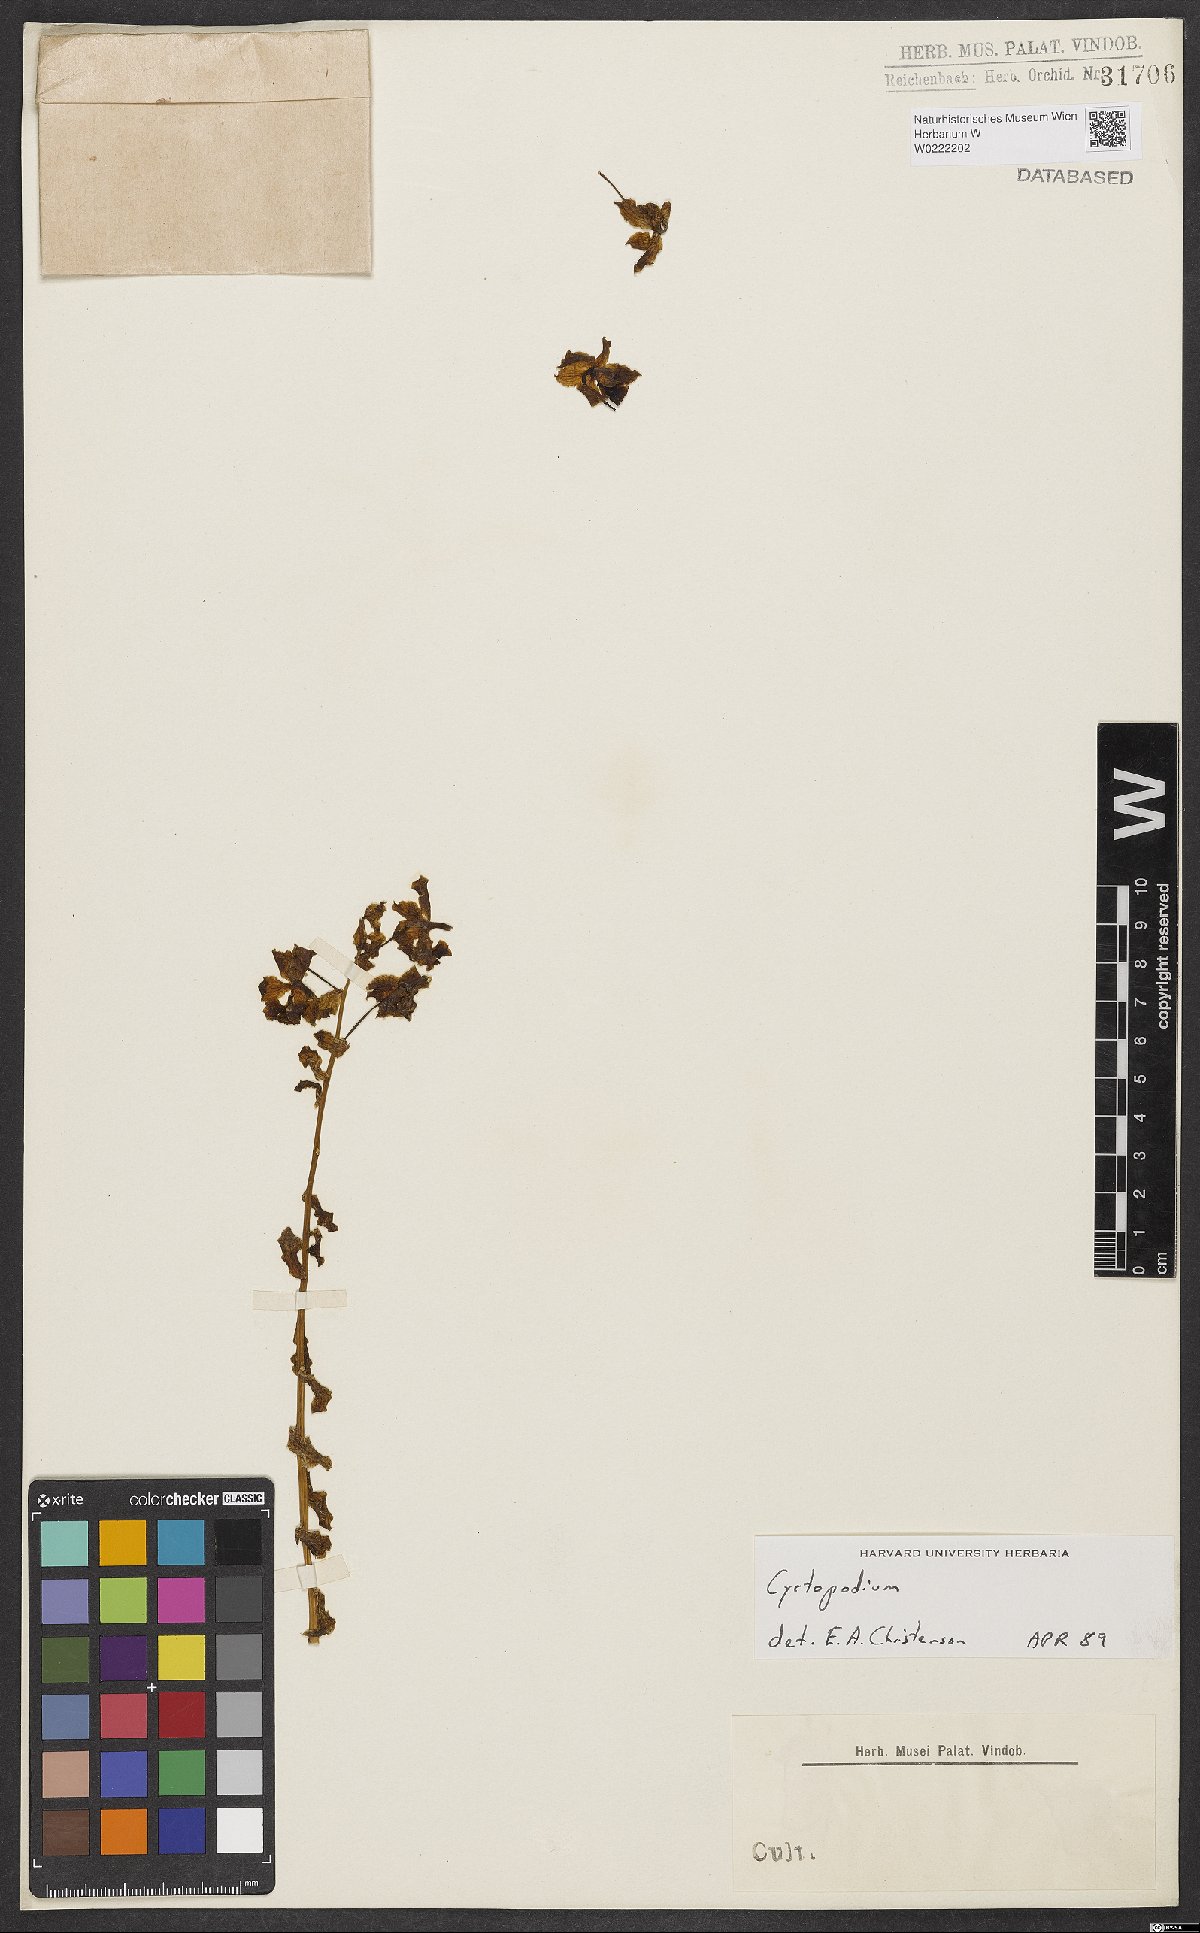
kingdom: Plantae
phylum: Tracheophyta
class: Liliopsida
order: Asparagales
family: Orchidaceae
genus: Cyrtopodium
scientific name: Cyrtopodium
